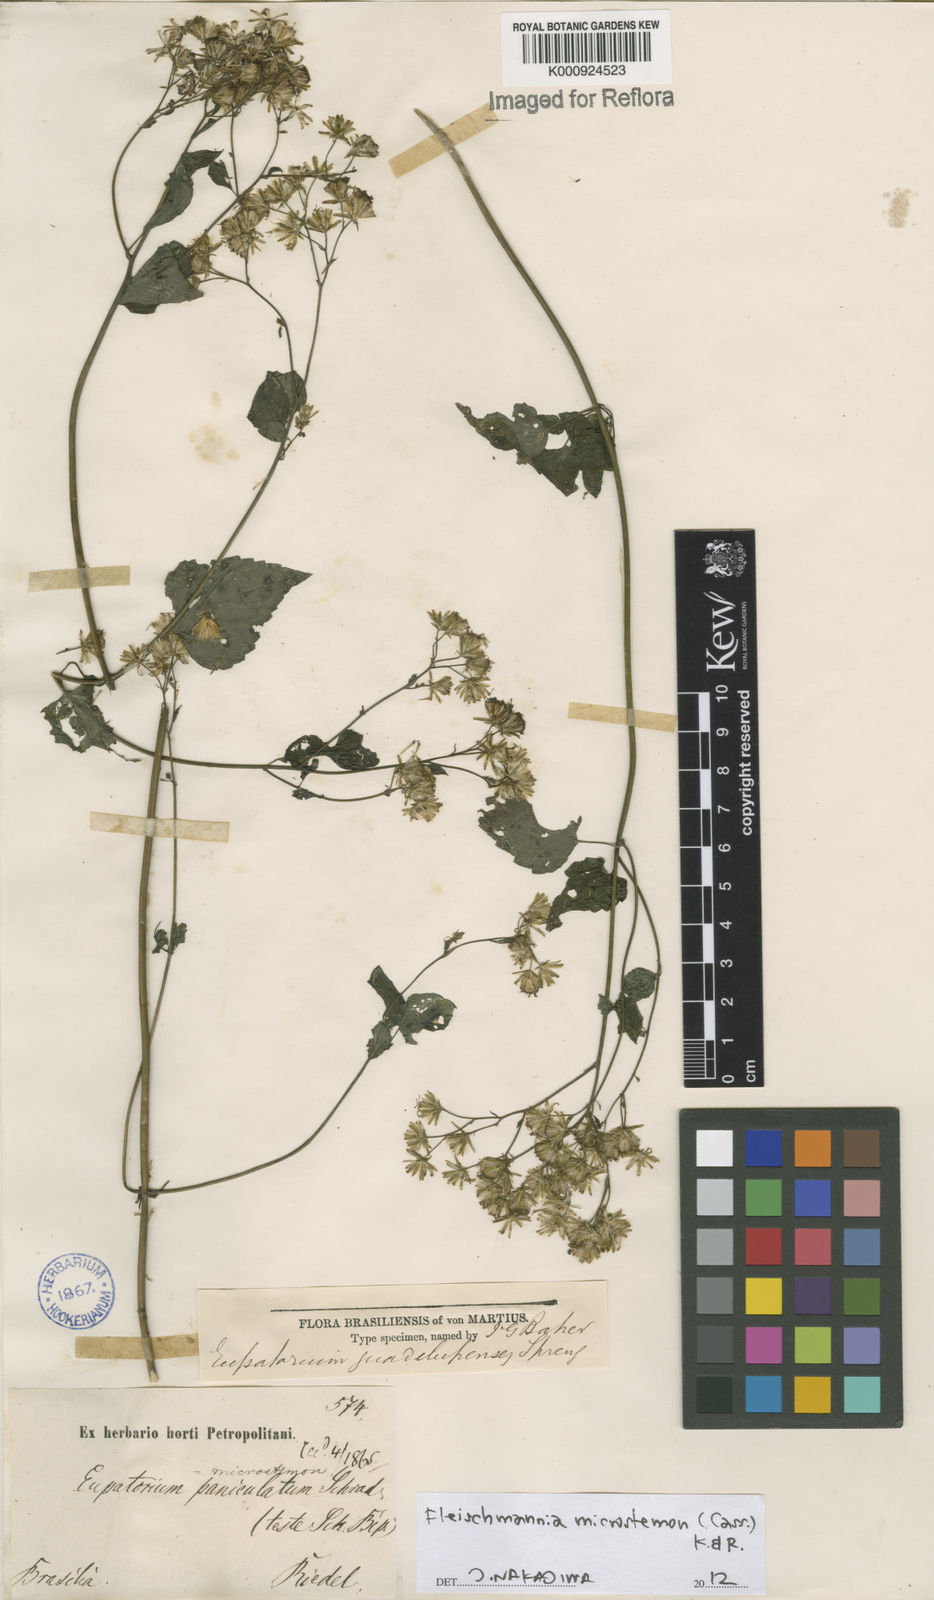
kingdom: Plantae
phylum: Tracheophyta
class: Magnoliopsida
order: Asterales
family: Asteraceae
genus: Fleischmannia
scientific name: Fleischmannia microstemon
